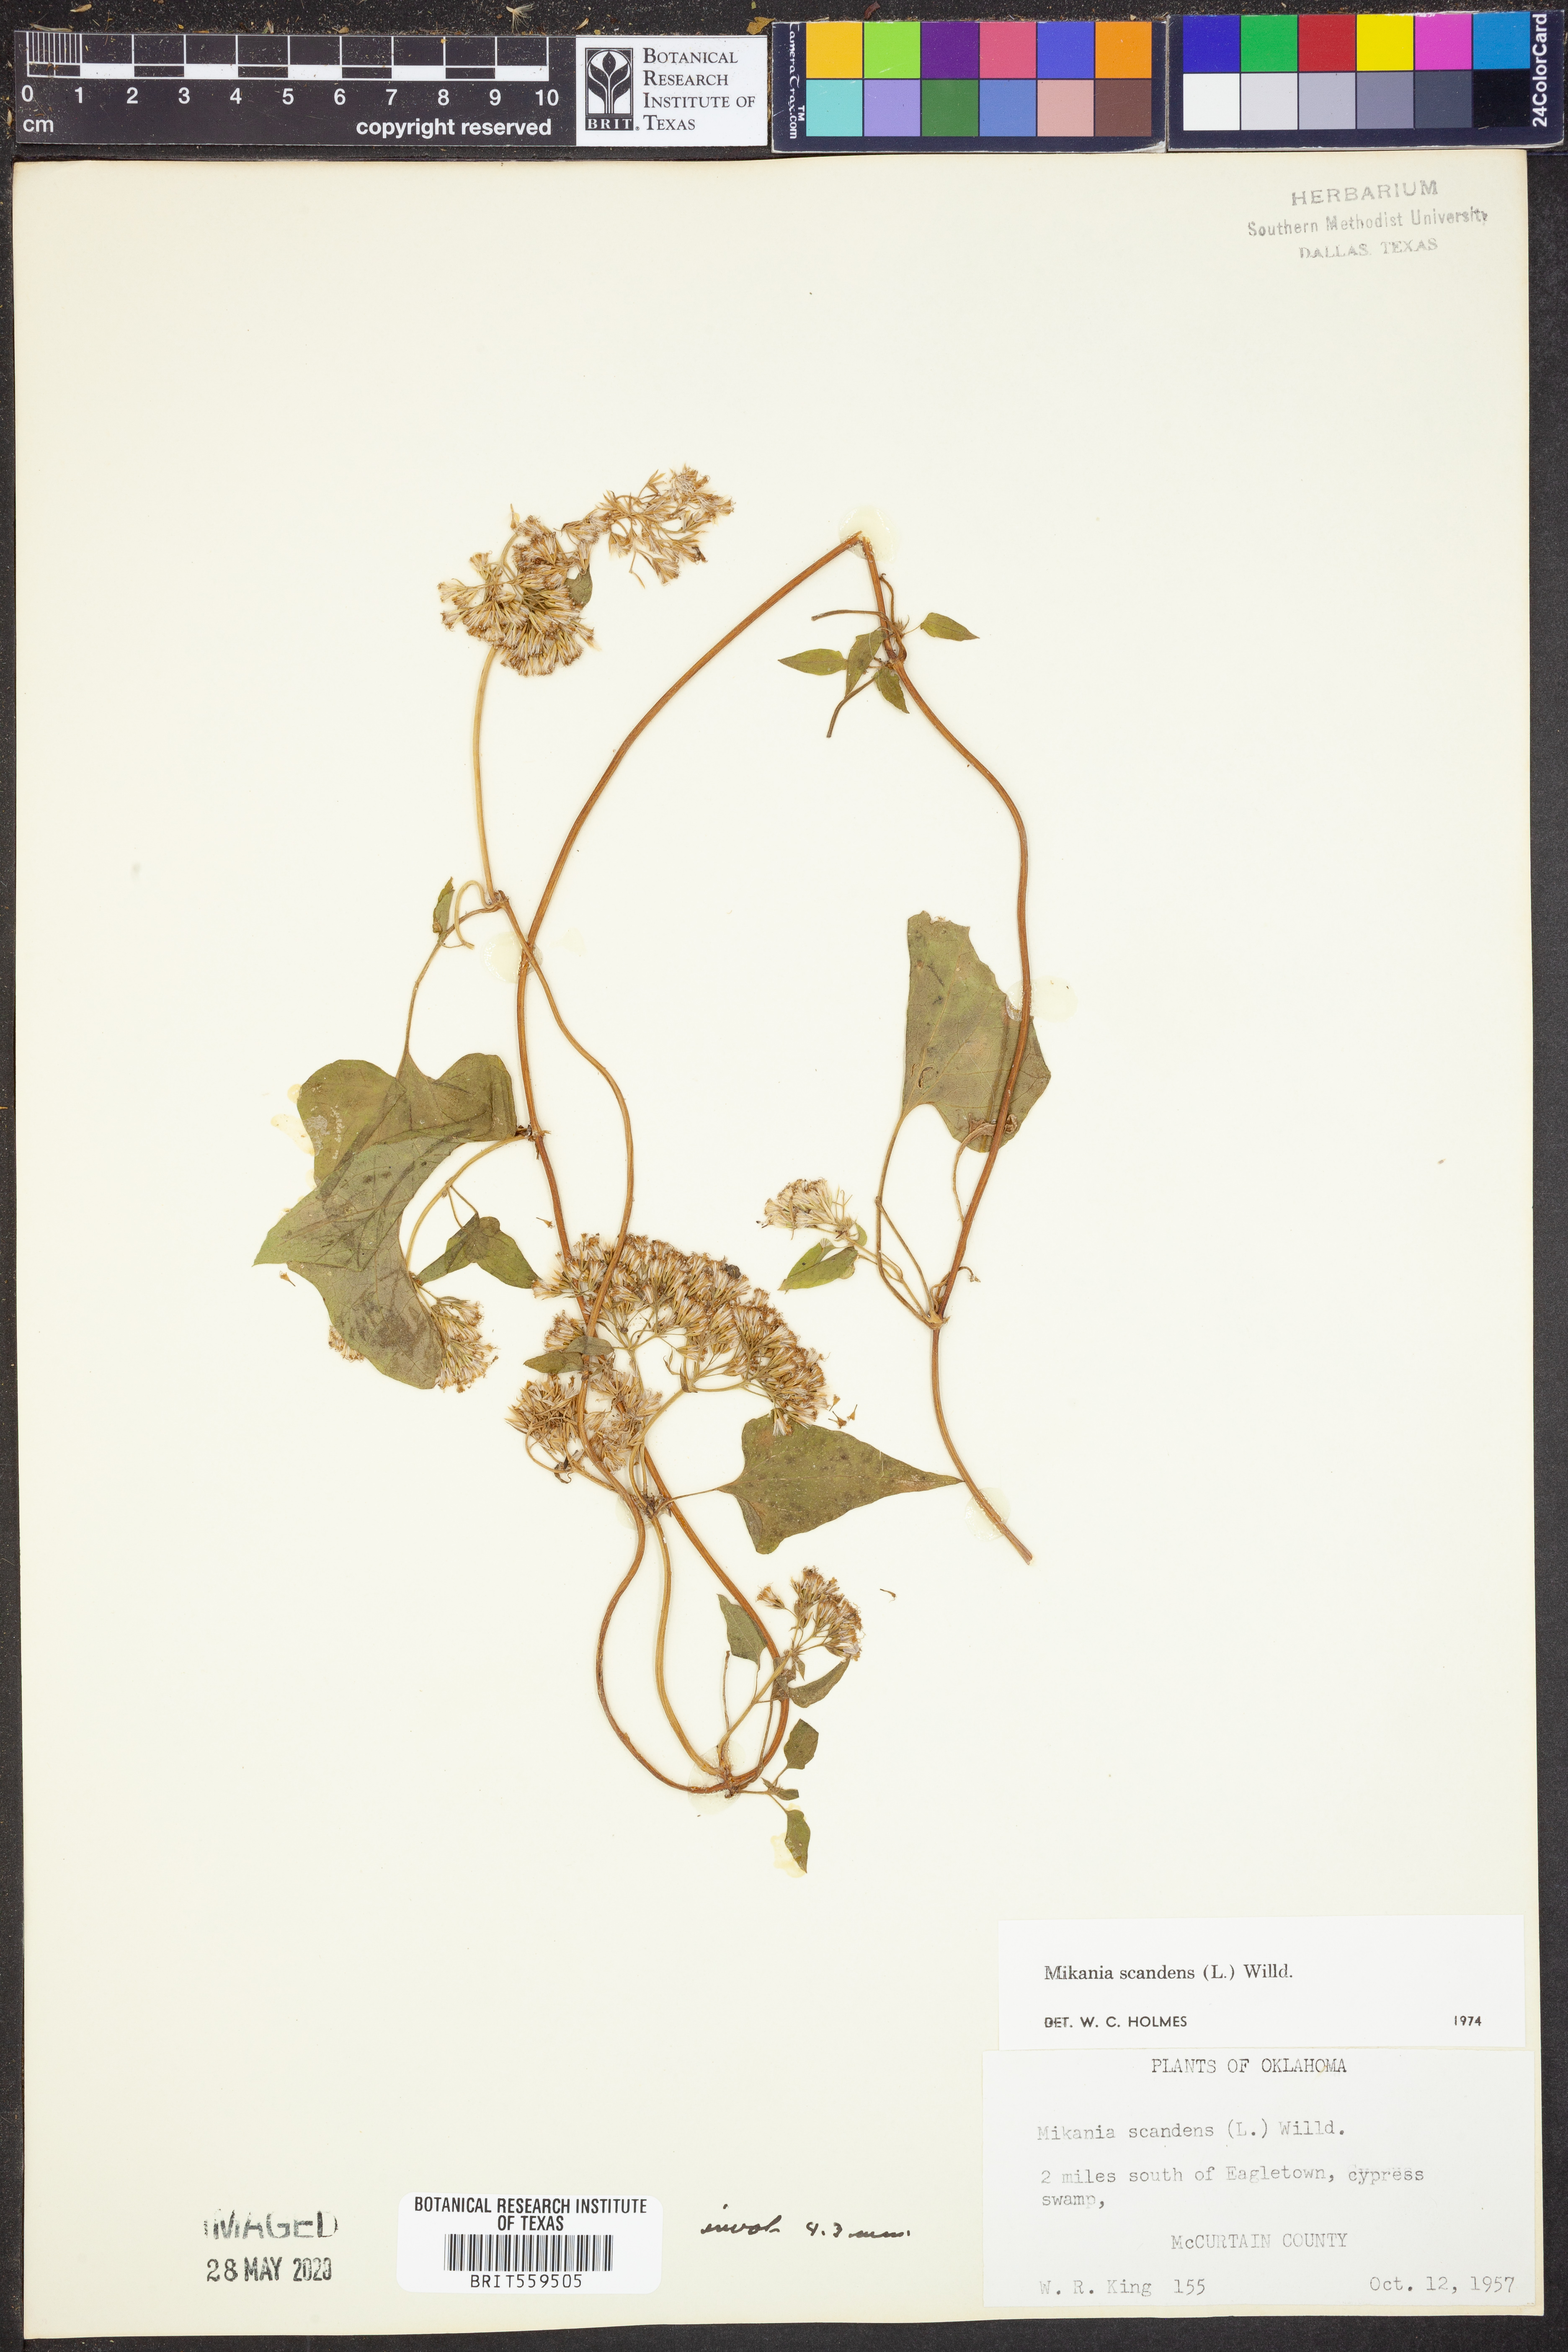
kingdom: Plantae
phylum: Tracheophyta
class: Magnoliopsida
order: Asterales
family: Asteraceae
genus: Mikania
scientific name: Mikania scandens
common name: Climbing hempvine
